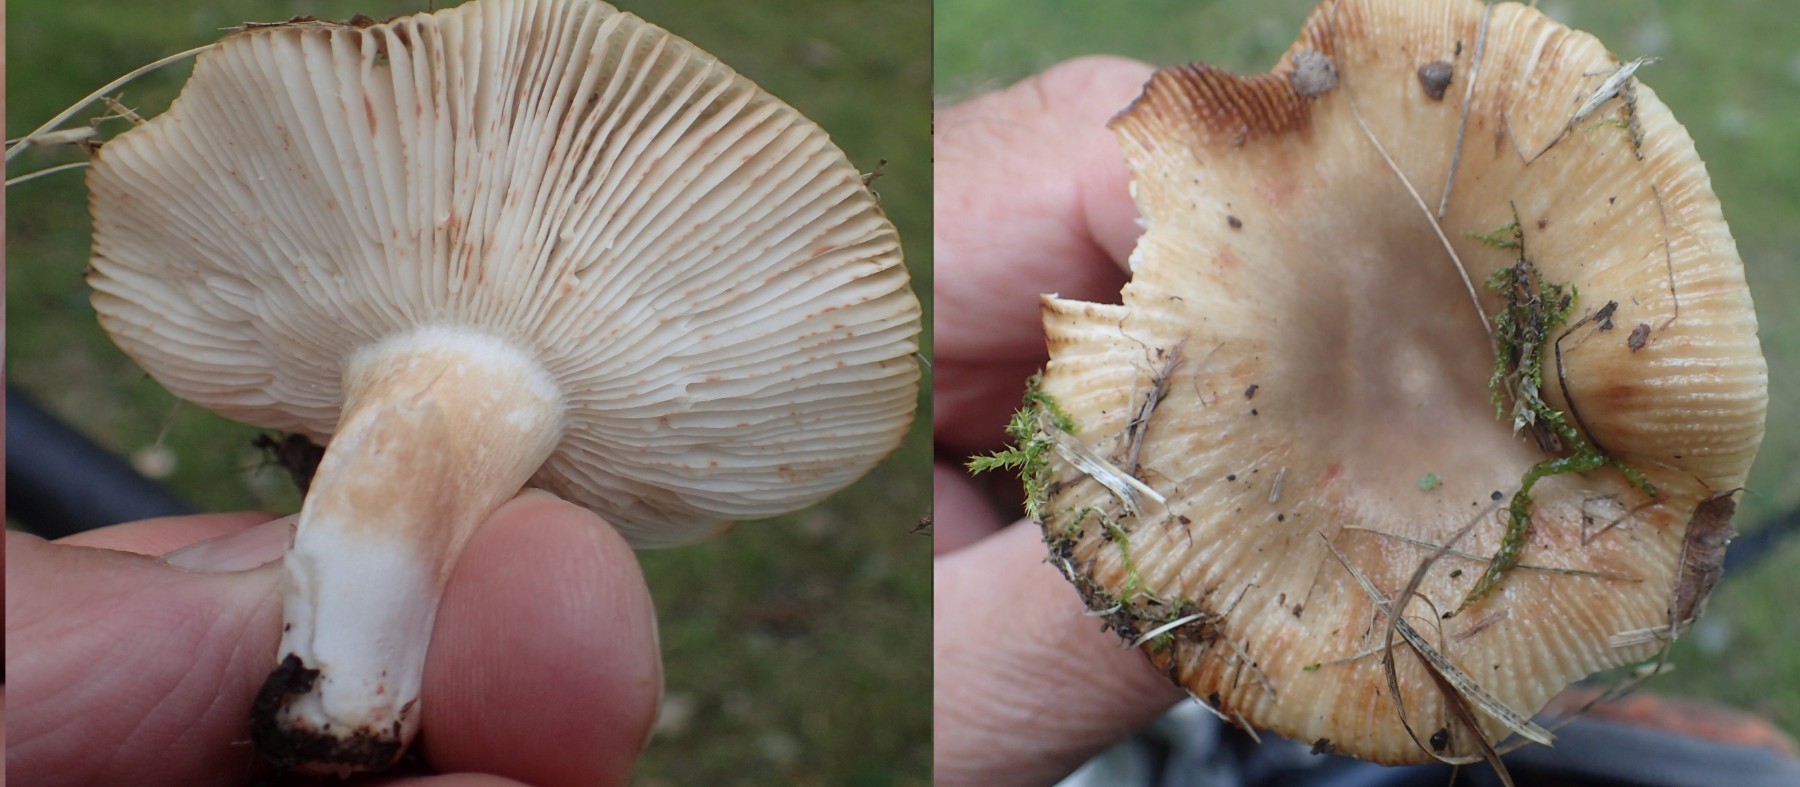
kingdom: Fungi
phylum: Basidiomycota
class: Agaricomycetes
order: Russulales
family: Russulaceae
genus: Russula
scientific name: Russula recondita
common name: mild kam-skørhat
